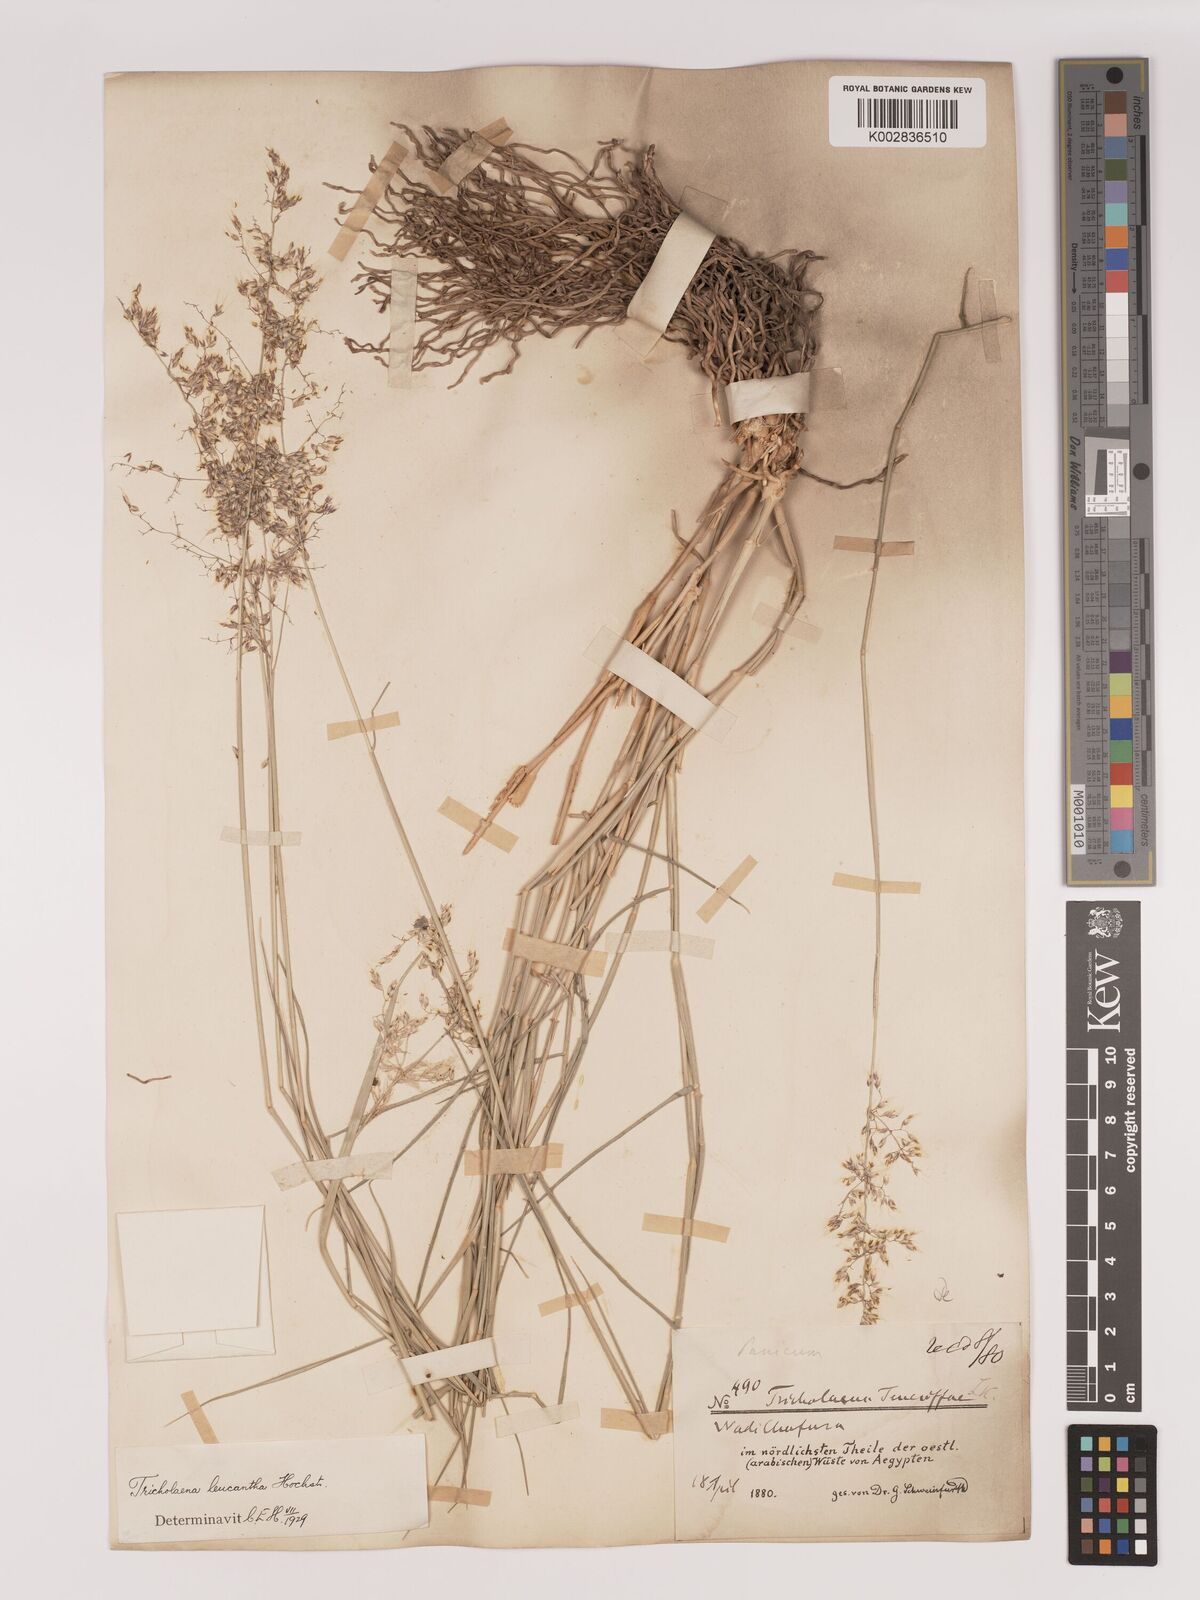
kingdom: Plantae
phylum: Tracheophyta
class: Liliopsida
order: Poales
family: Poaceae
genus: Tricholaena
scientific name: Tricholaena teneriffae
